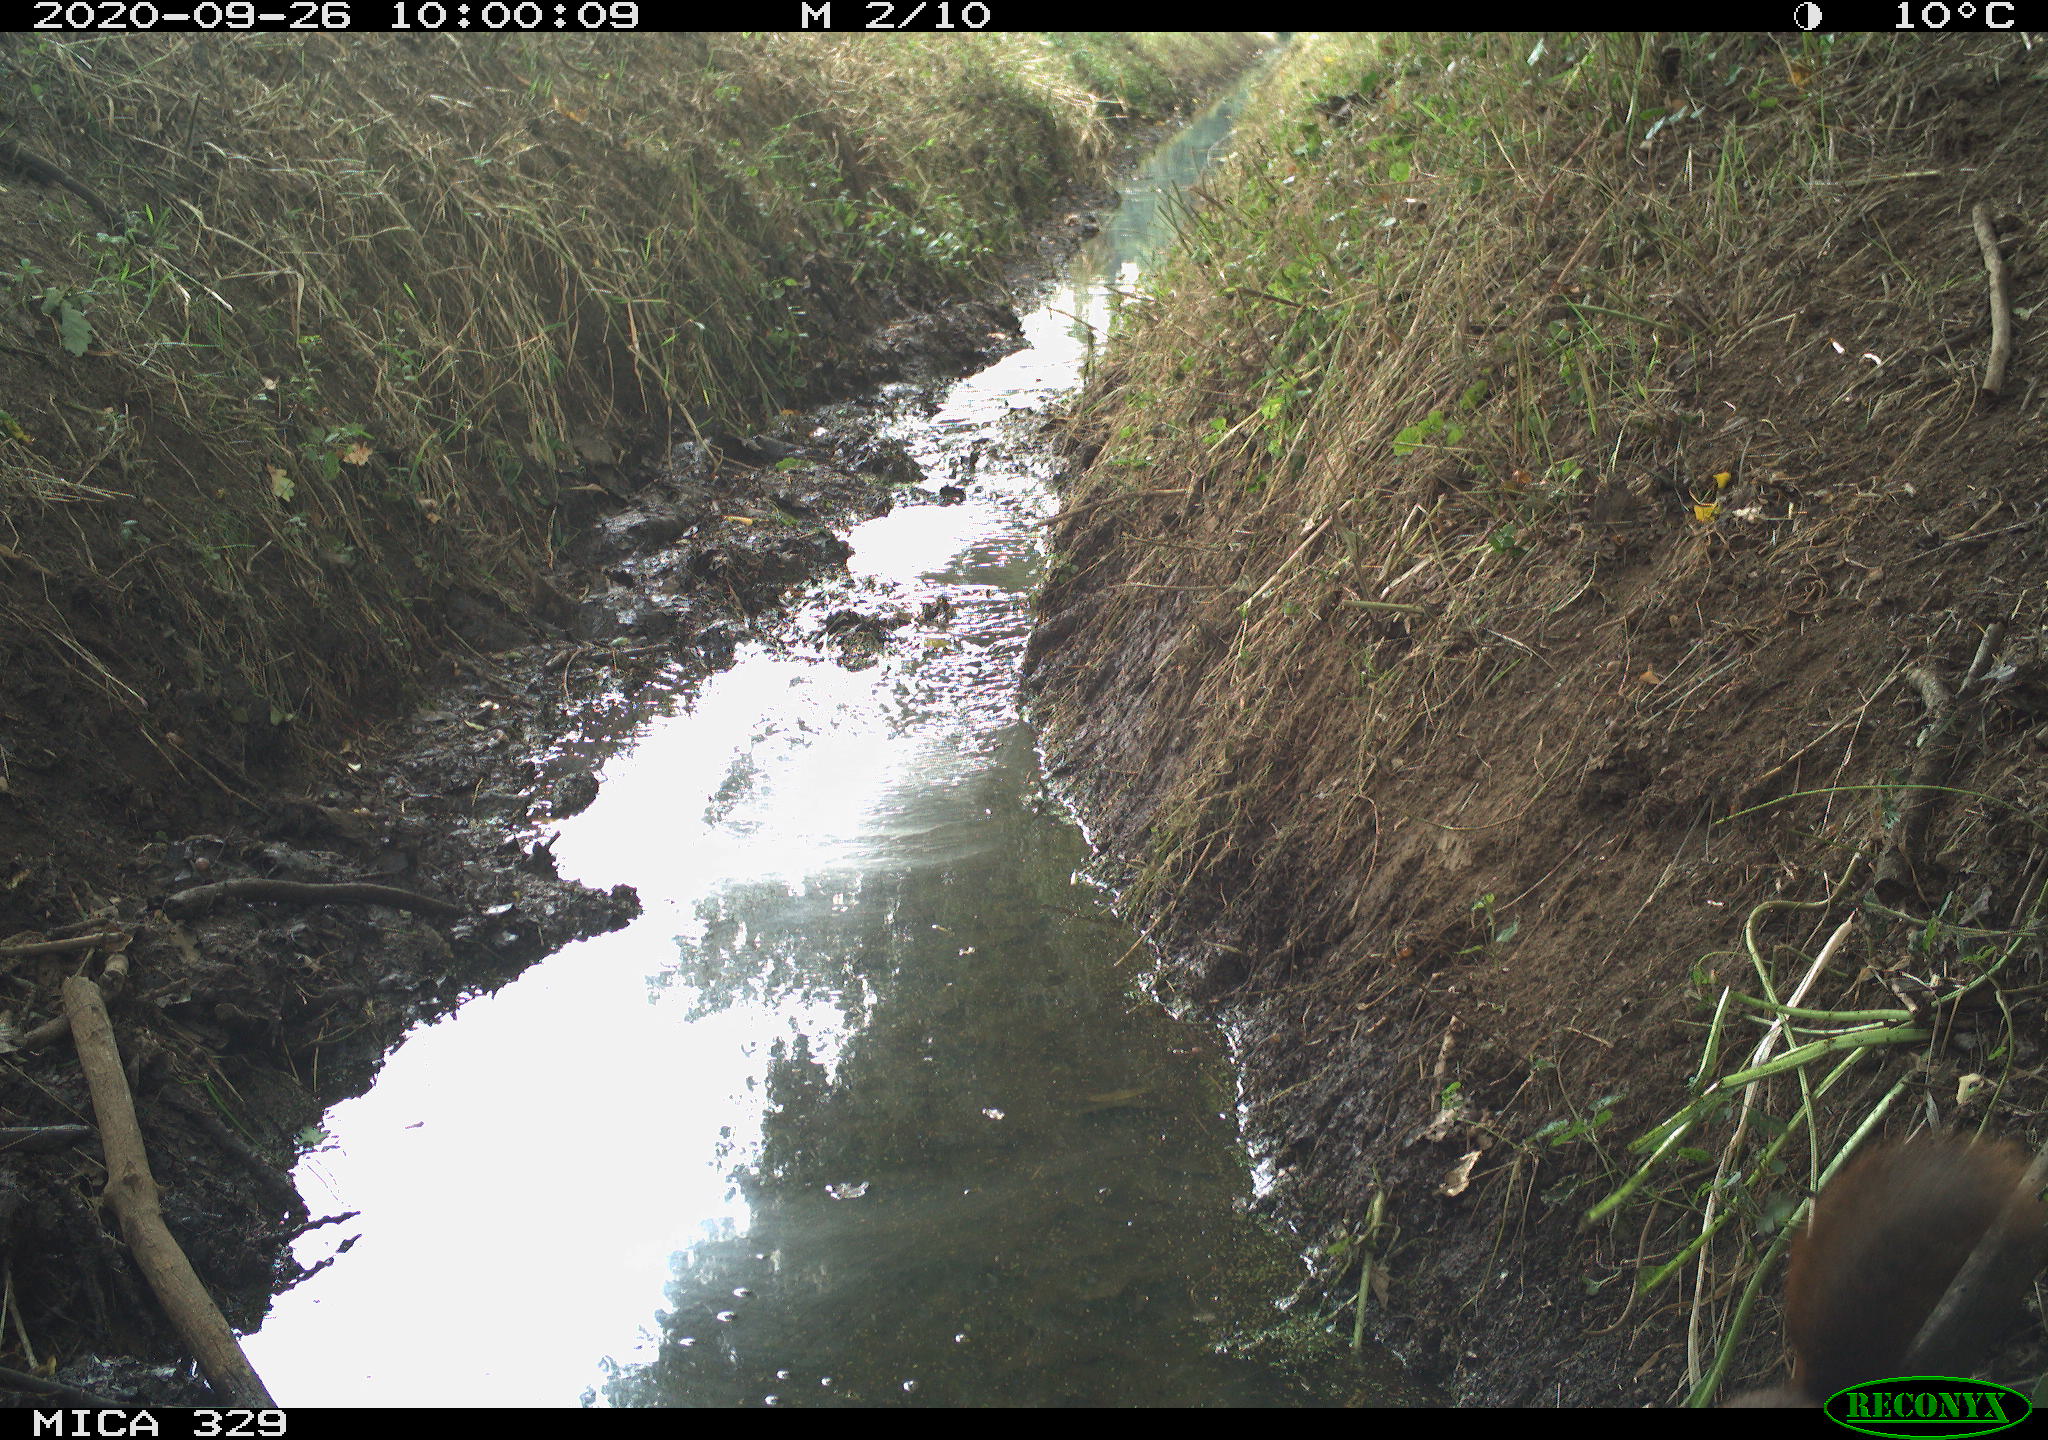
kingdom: Animalia
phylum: Chordata
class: Mammalia
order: Rodentia
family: Sciuridae
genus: Sciurus
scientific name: Sciurus vulgaris
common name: Eurasian red squirrel
